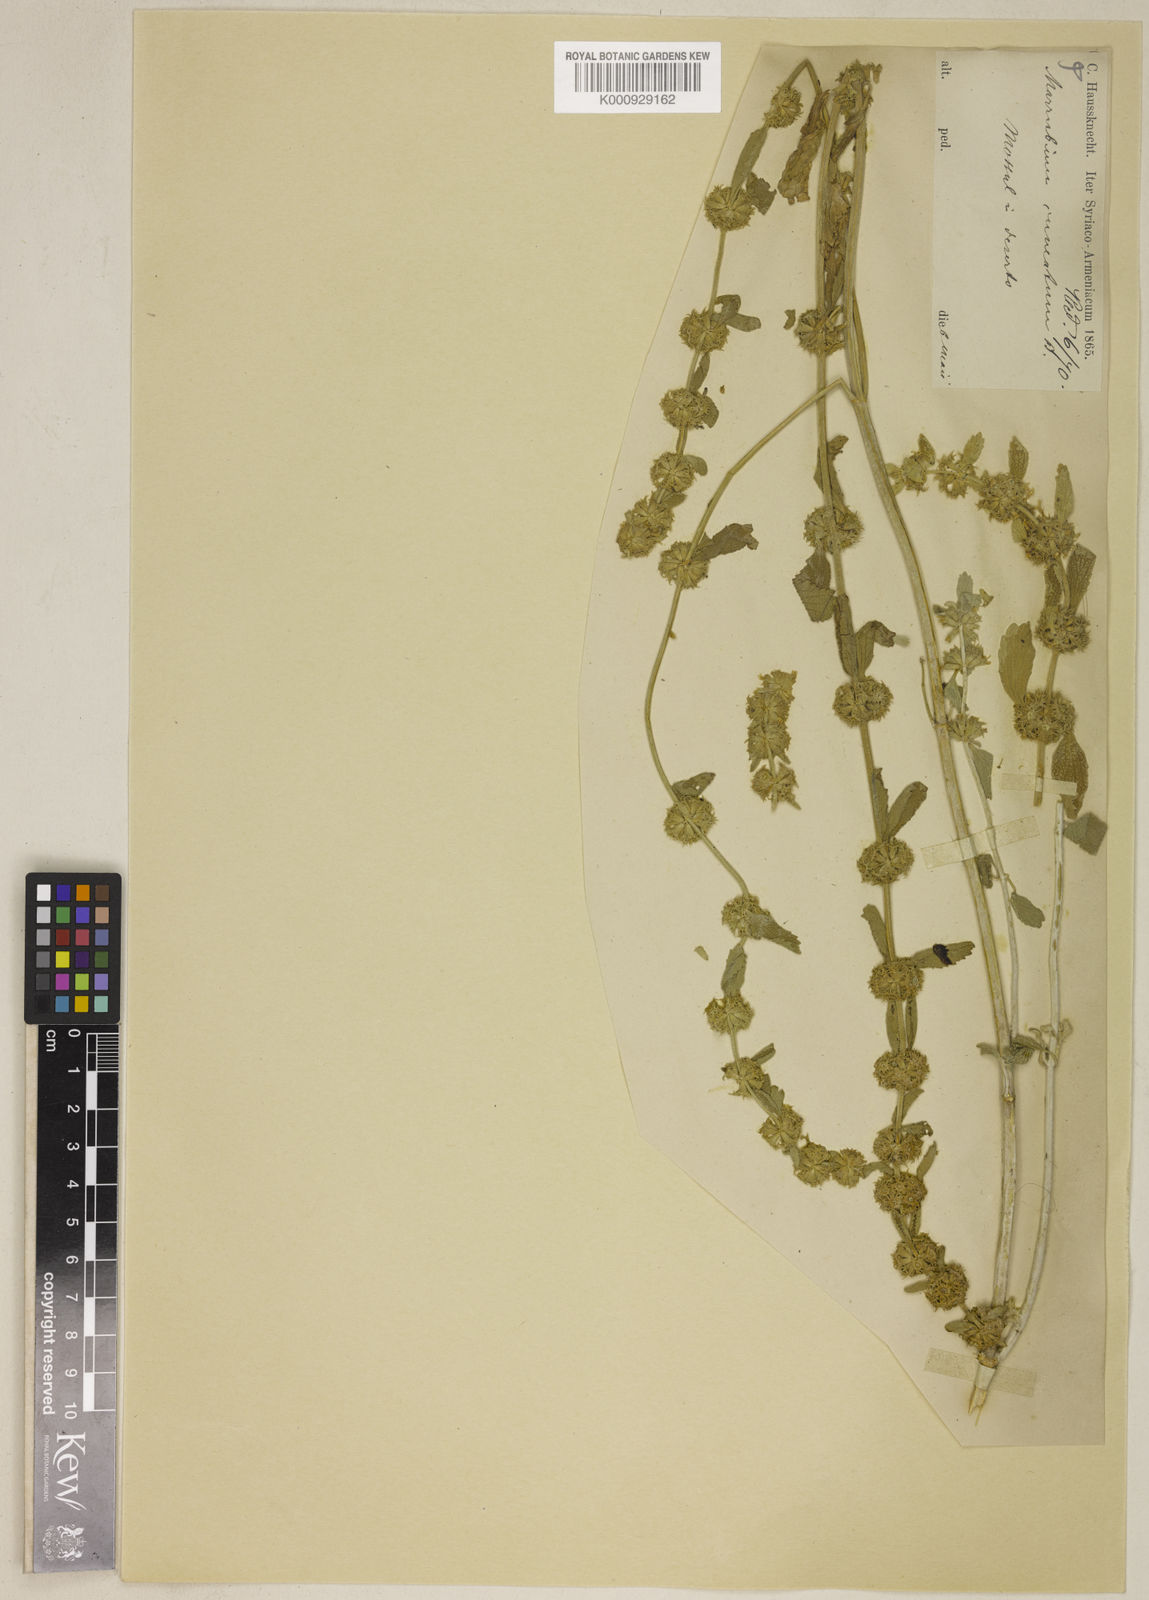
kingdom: Plantae
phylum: Tracheophyta
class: Magnoliopsida
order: Lamiales
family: Lamiaceae
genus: Marrubium
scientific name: Marrubium cuneatum
